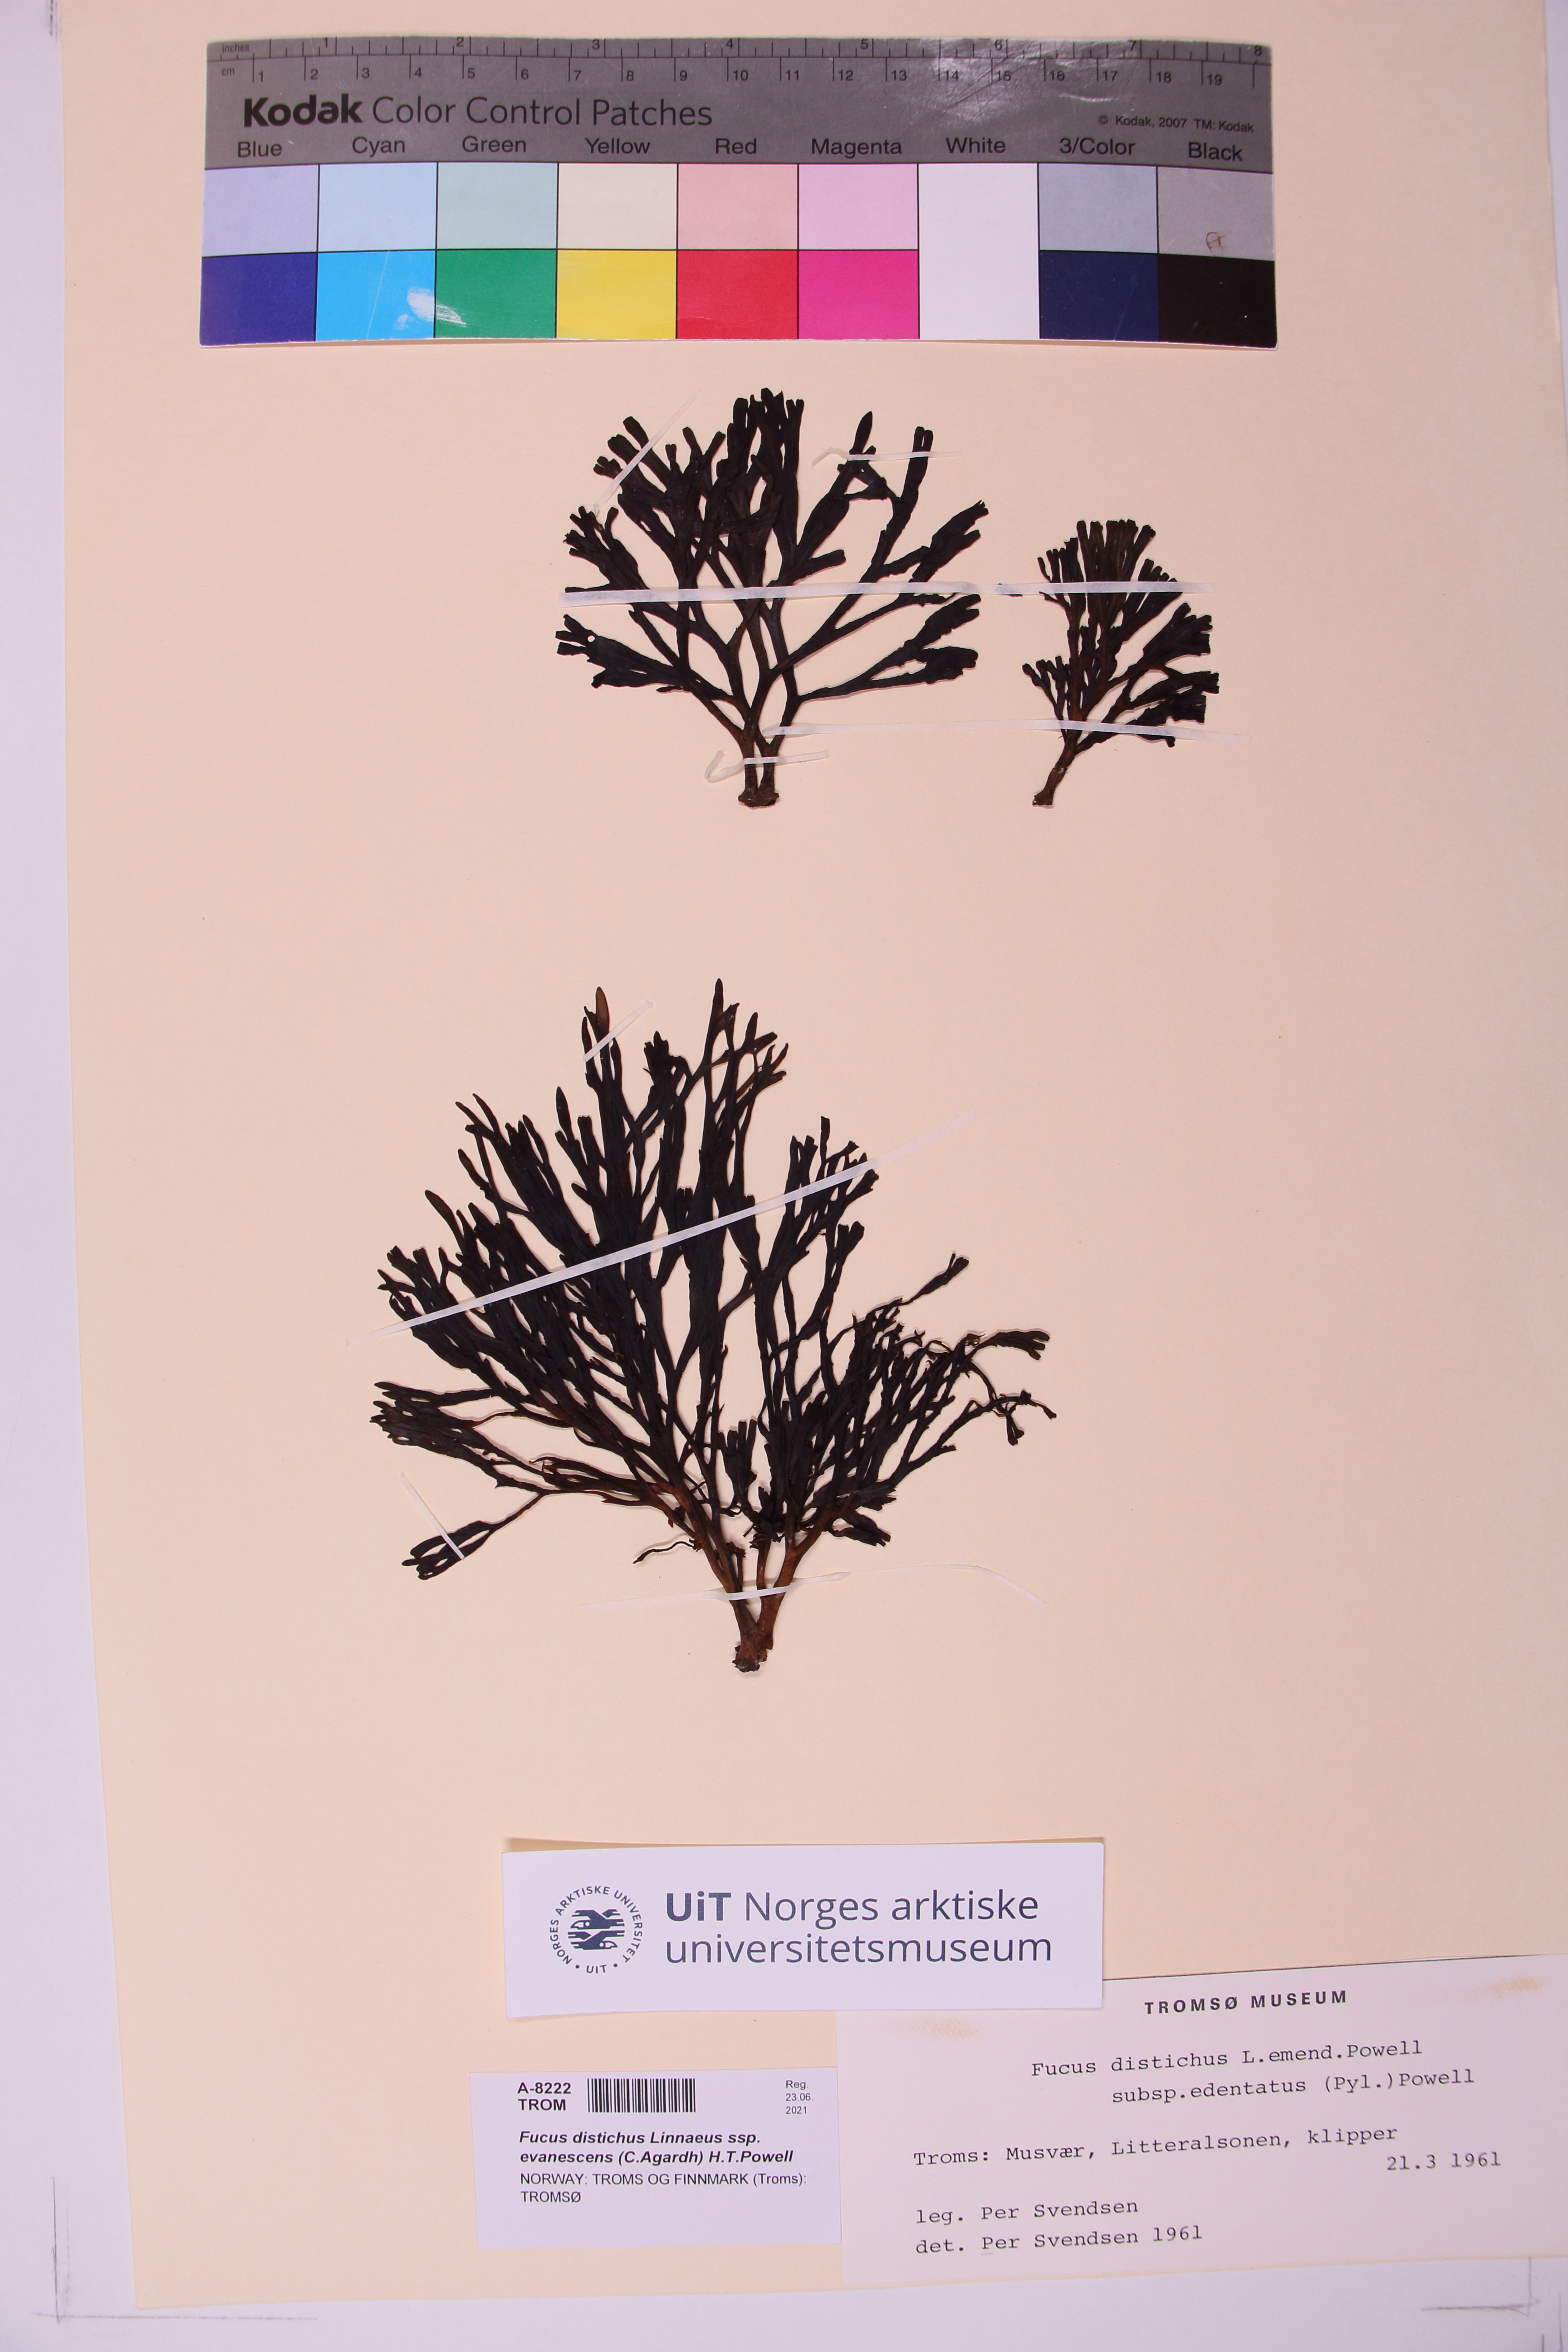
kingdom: Chromista
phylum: Ochrophyta
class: Phaeophyceae
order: Fucales
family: Fucaceae
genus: Fucus
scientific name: Fucus evanescens
